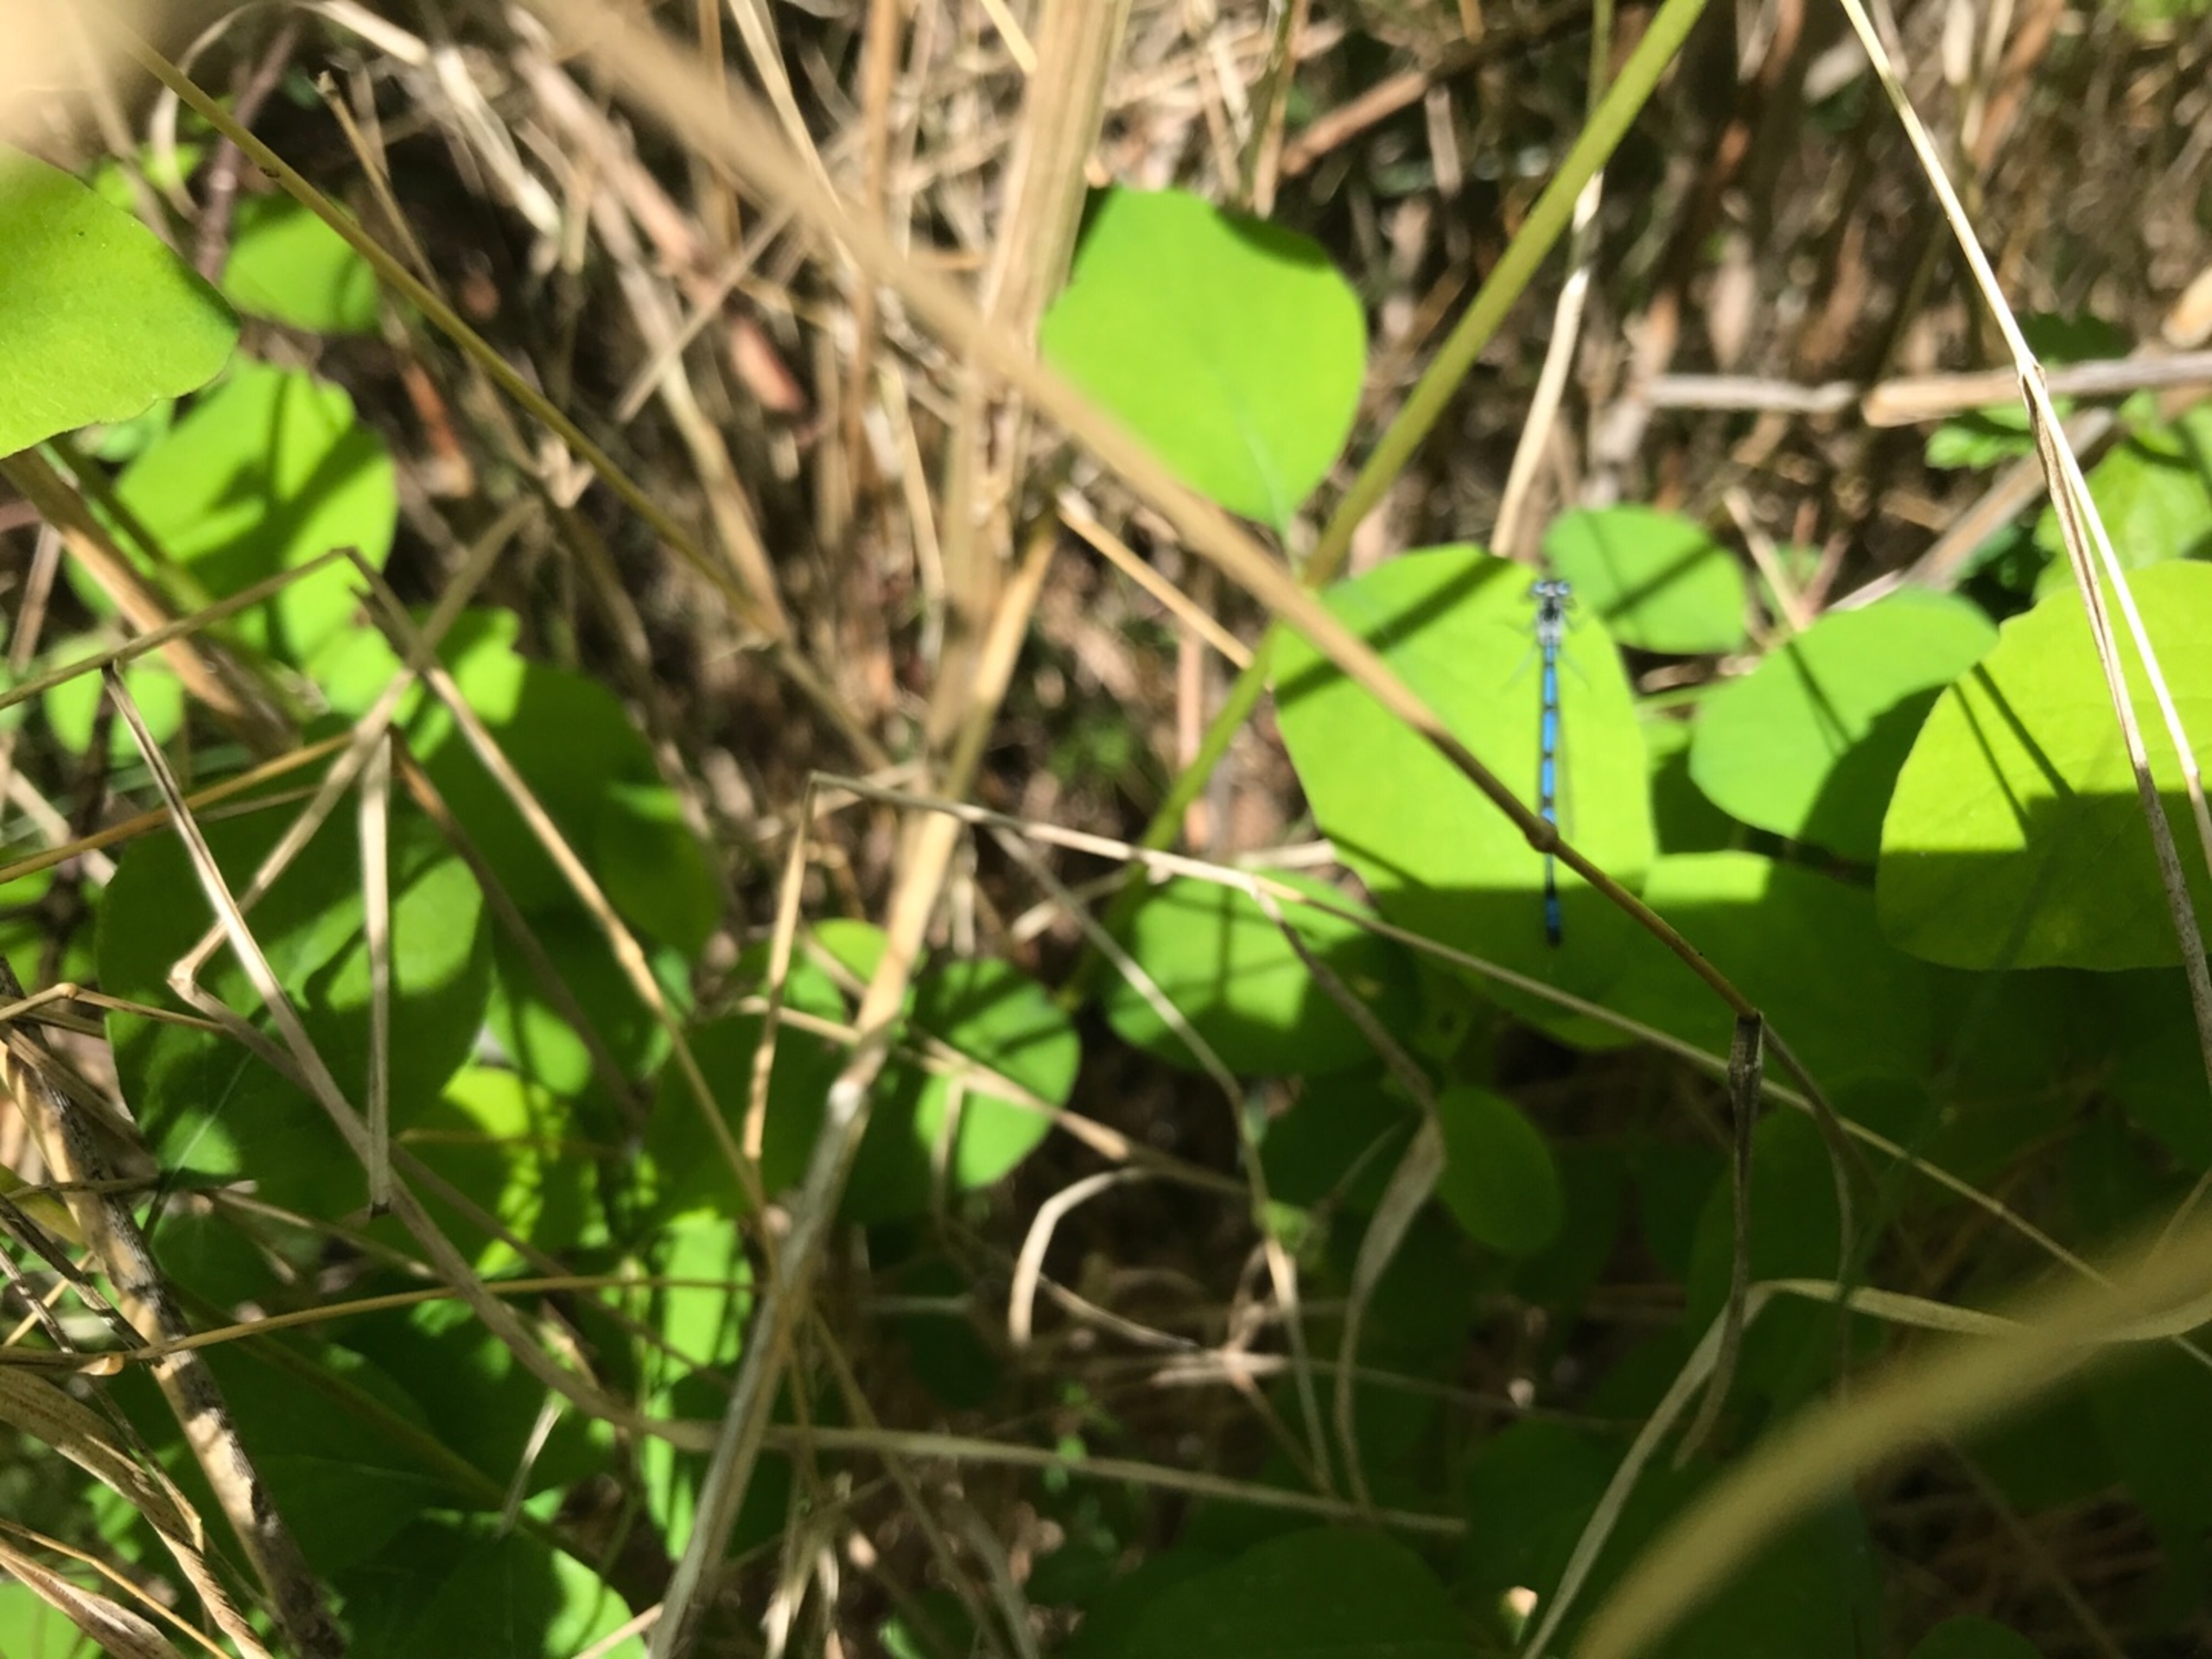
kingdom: Animalia
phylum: Arthropoda
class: Insecta
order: Odonata
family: Coenagrionidae
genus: Coenagrion
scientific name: Coenagrion puella
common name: Hestesko-vandnymfe
